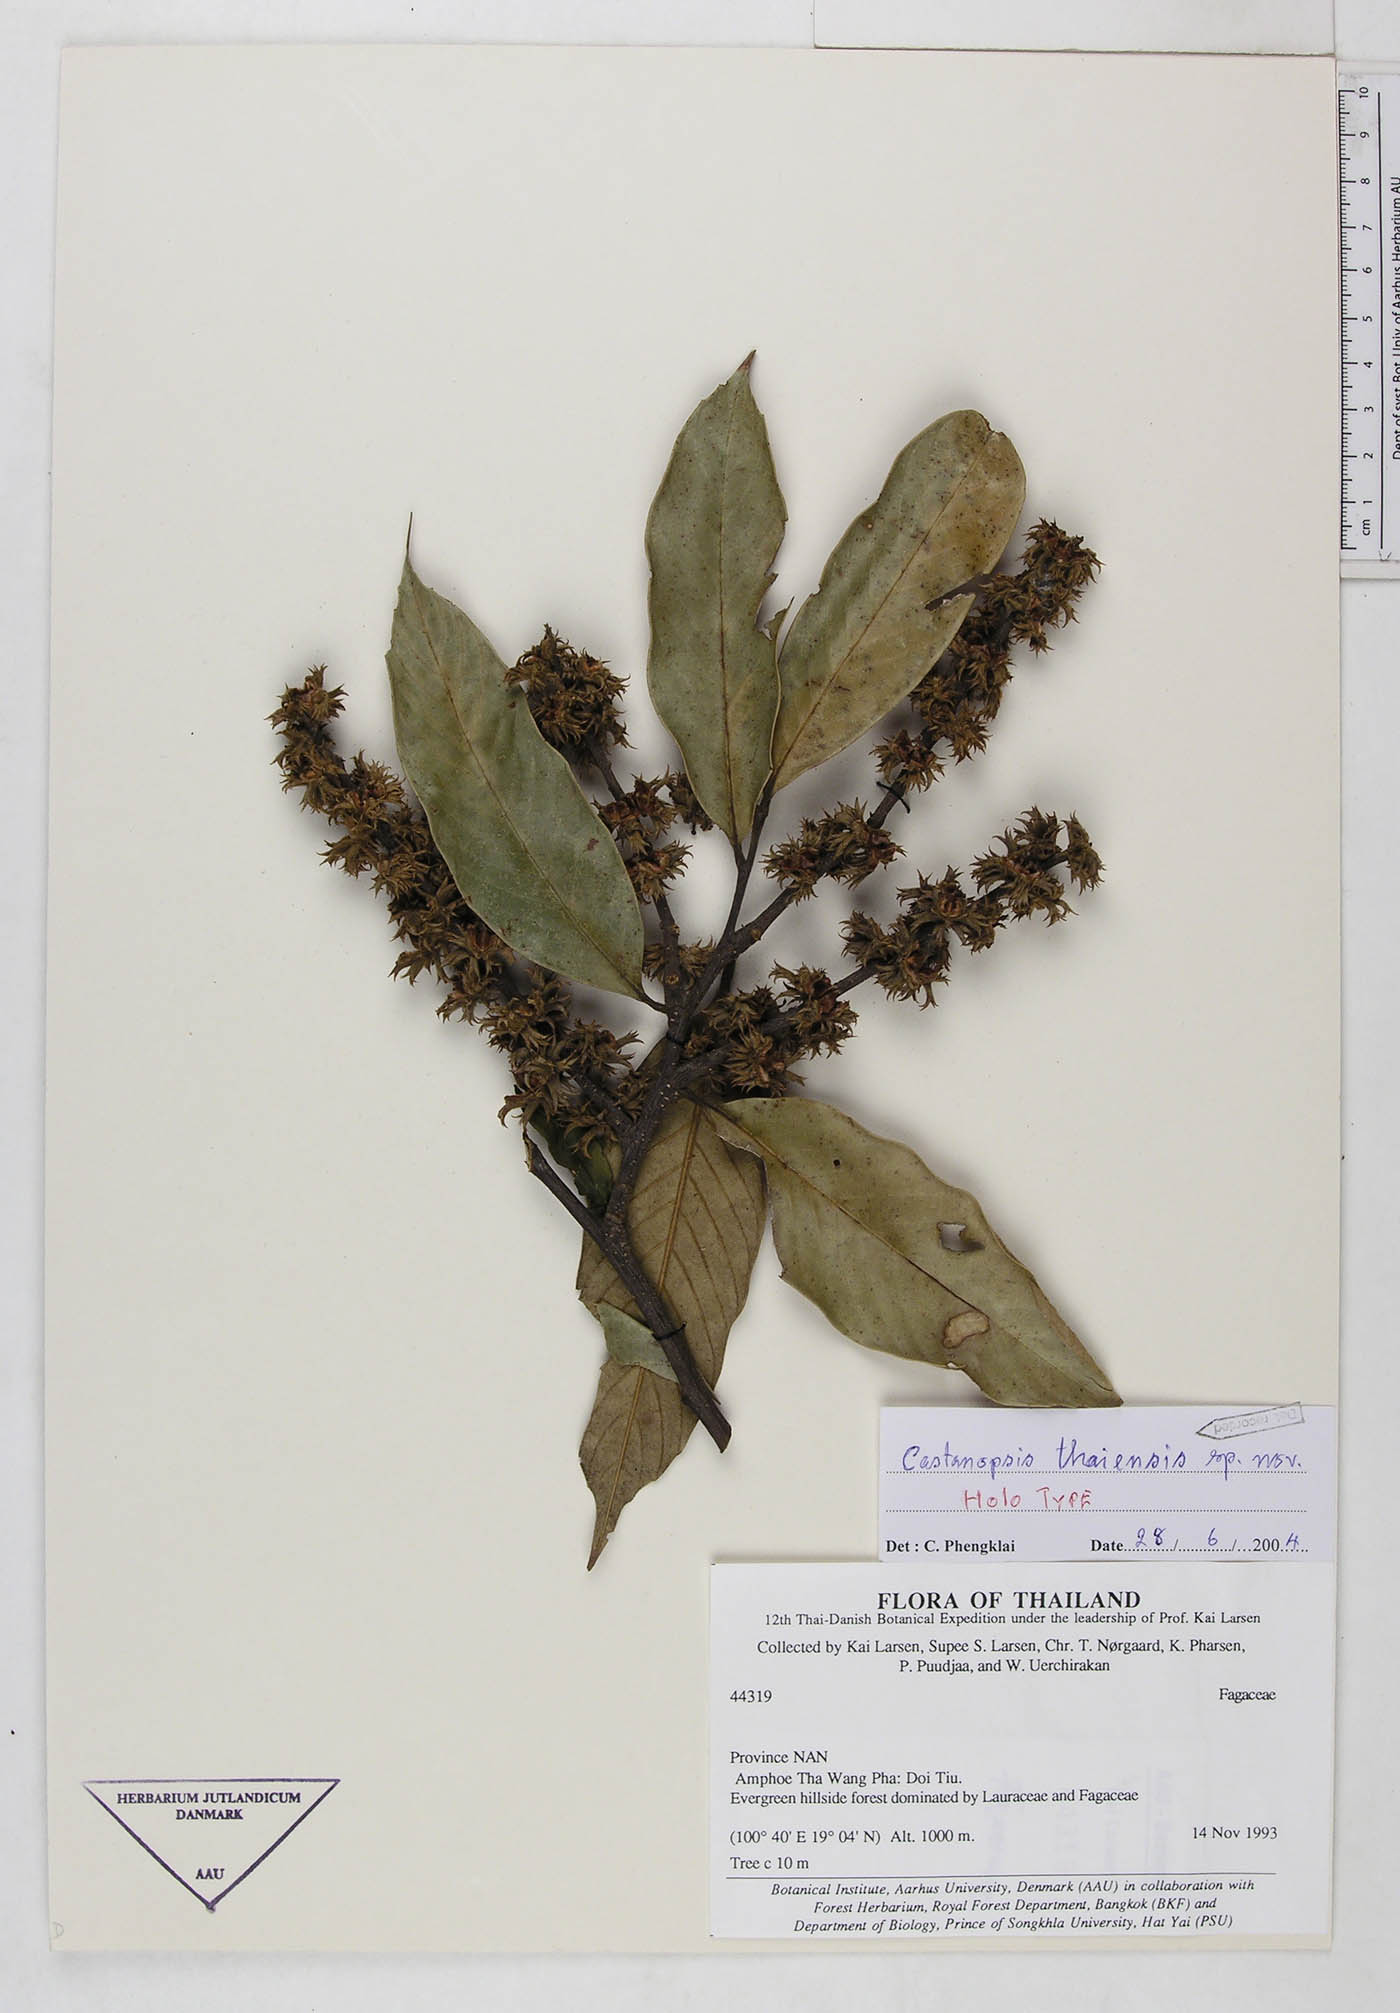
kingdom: Plantae
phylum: Tracheophyta
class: Magnoliopsida
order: Fagales
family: Fagaceae
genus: Castanopsis
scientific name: Castanopsis thaiensis
